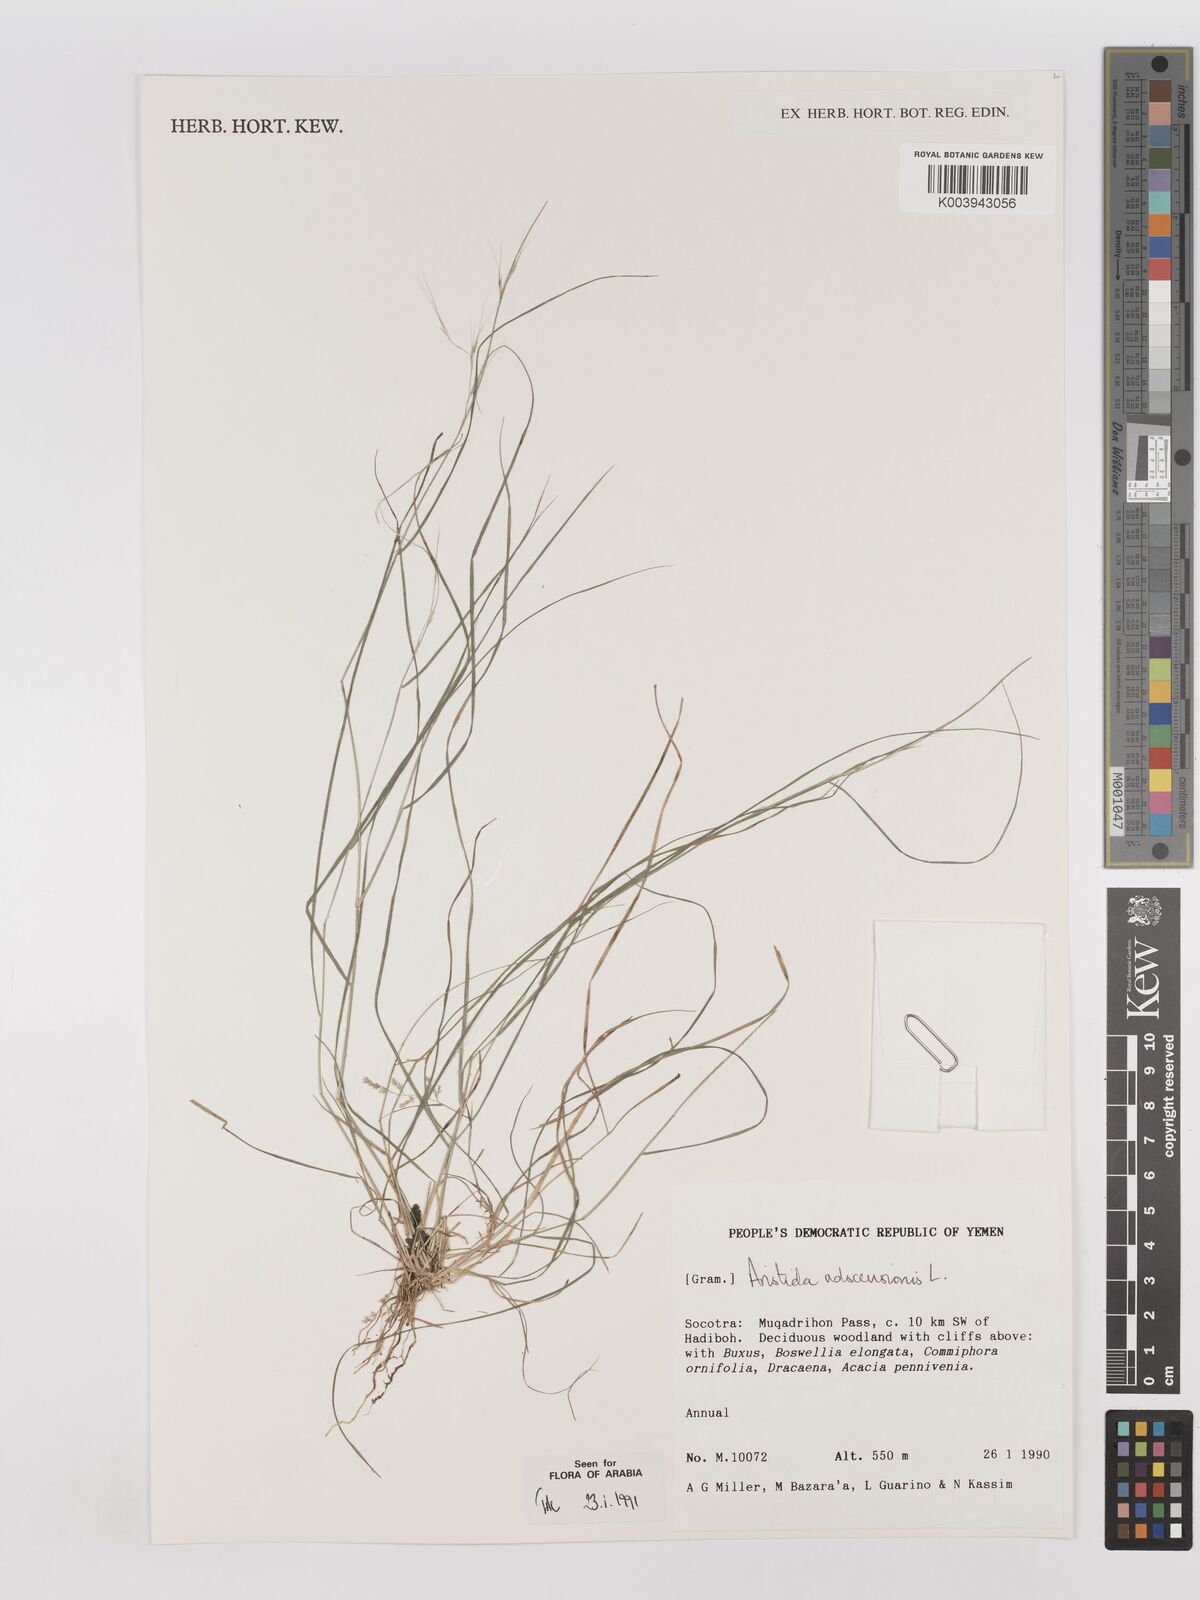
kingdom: Plantae
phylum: Tracheophyta
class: Liliopsida
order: Poales
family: Poaceae
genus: Aristida
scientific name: Aristida adscensionis
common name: Sixweeks threeawn
